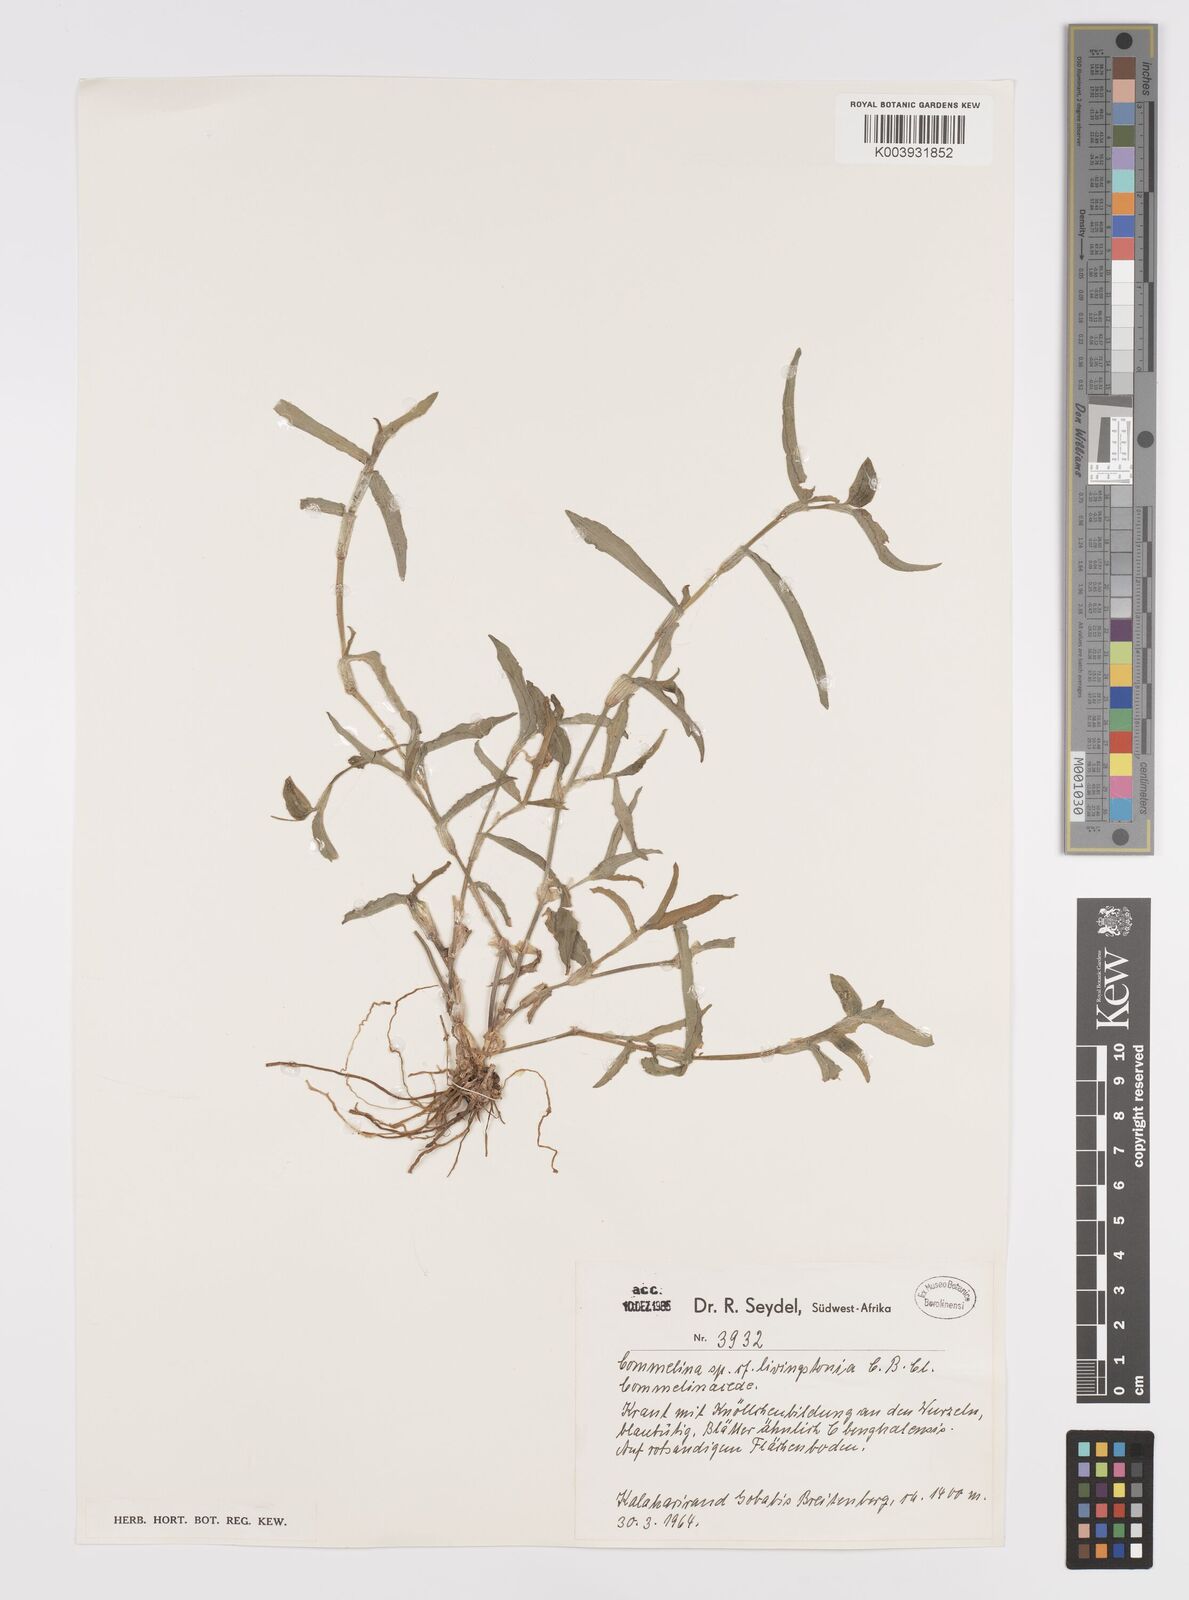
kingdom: Plantae
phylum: Tracheophyta
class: Liliopsida
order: Commelinales
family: Commelinaceae
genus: Commelina
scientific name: Commelina forskaolii
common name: Rat's ear
